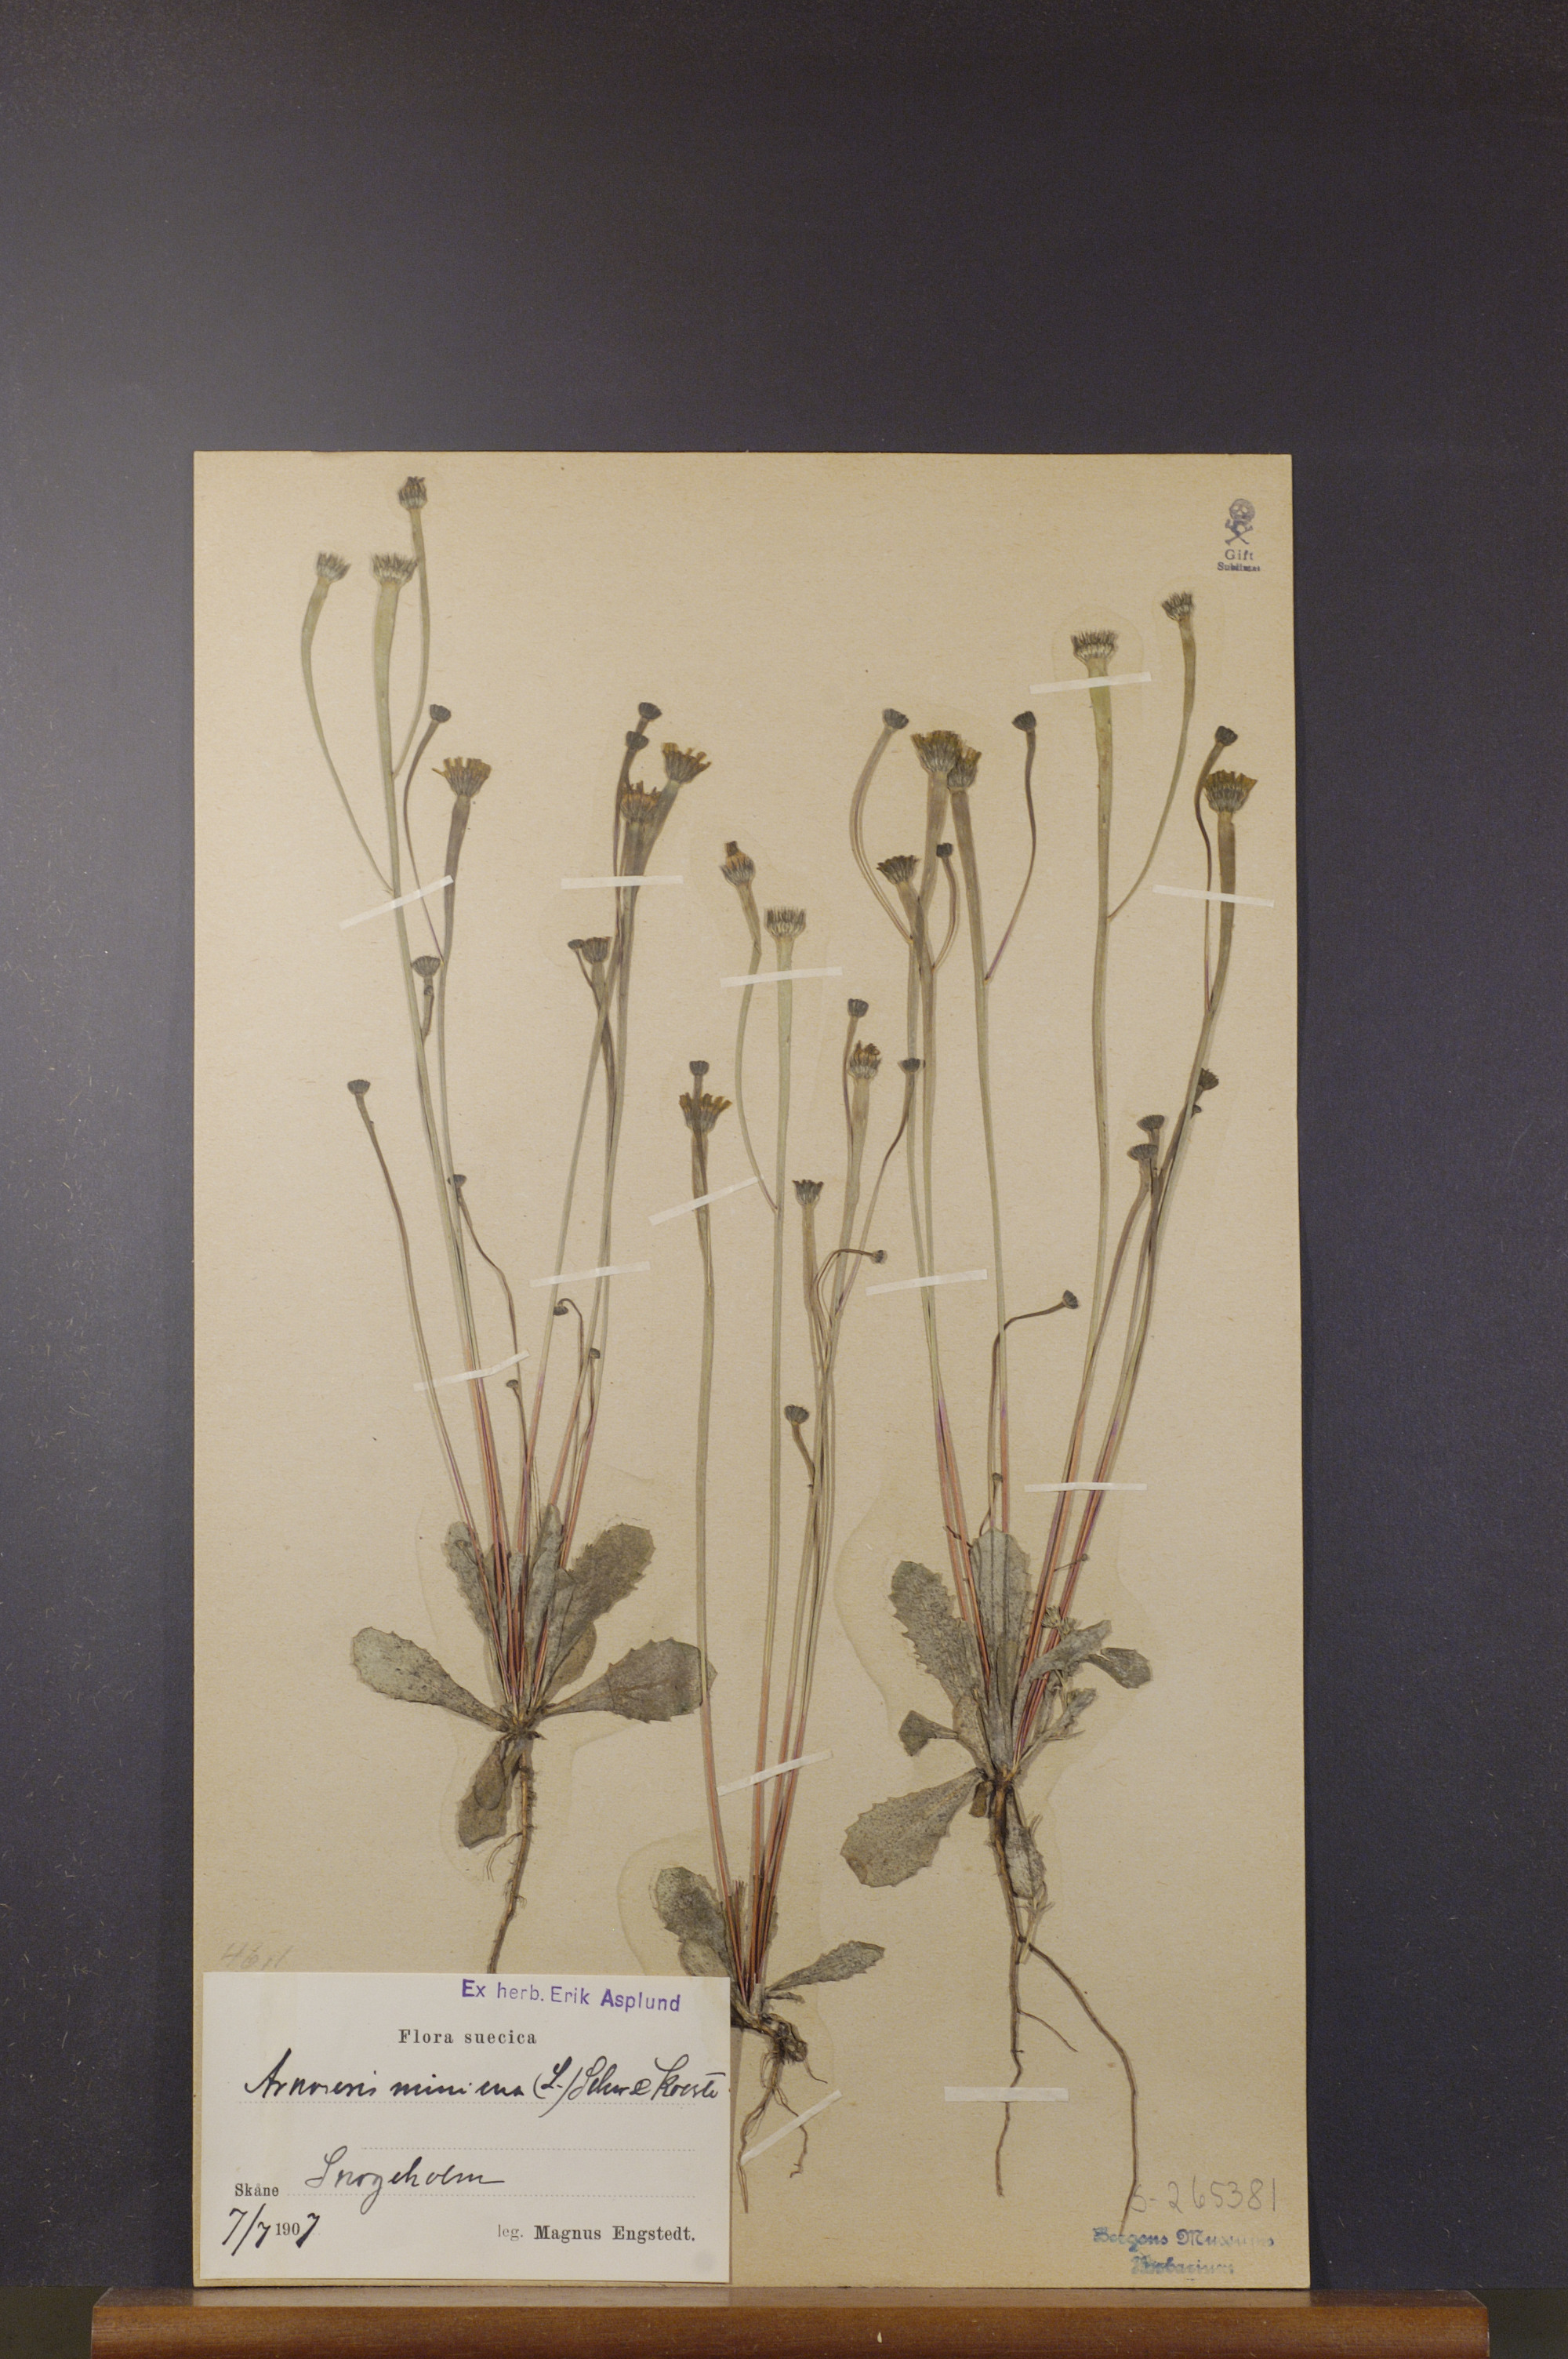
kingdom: Plantae
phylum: Tracheophyta
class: Magnoliopsida
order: Asterales
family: Asteraceae
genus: Arnoseris
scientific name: Arnoseris minima
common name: Lamb's succory
